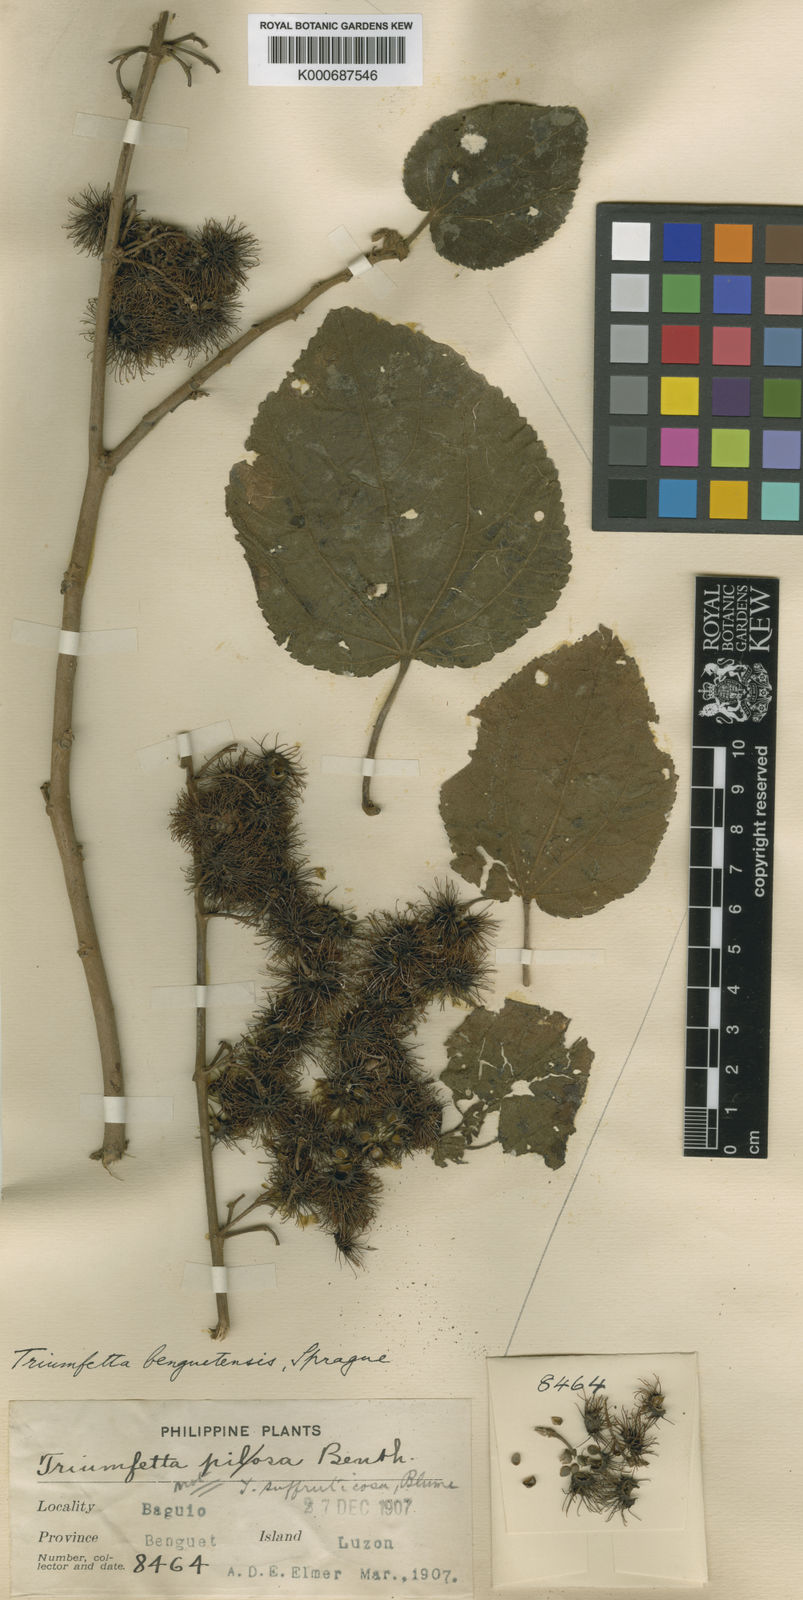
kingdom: Plantae
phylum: Tracheophyta
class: Magnoliopsida
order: Malvales
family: Malvaceae
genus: Triumfetta
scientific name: Triumfetta benguetensis
